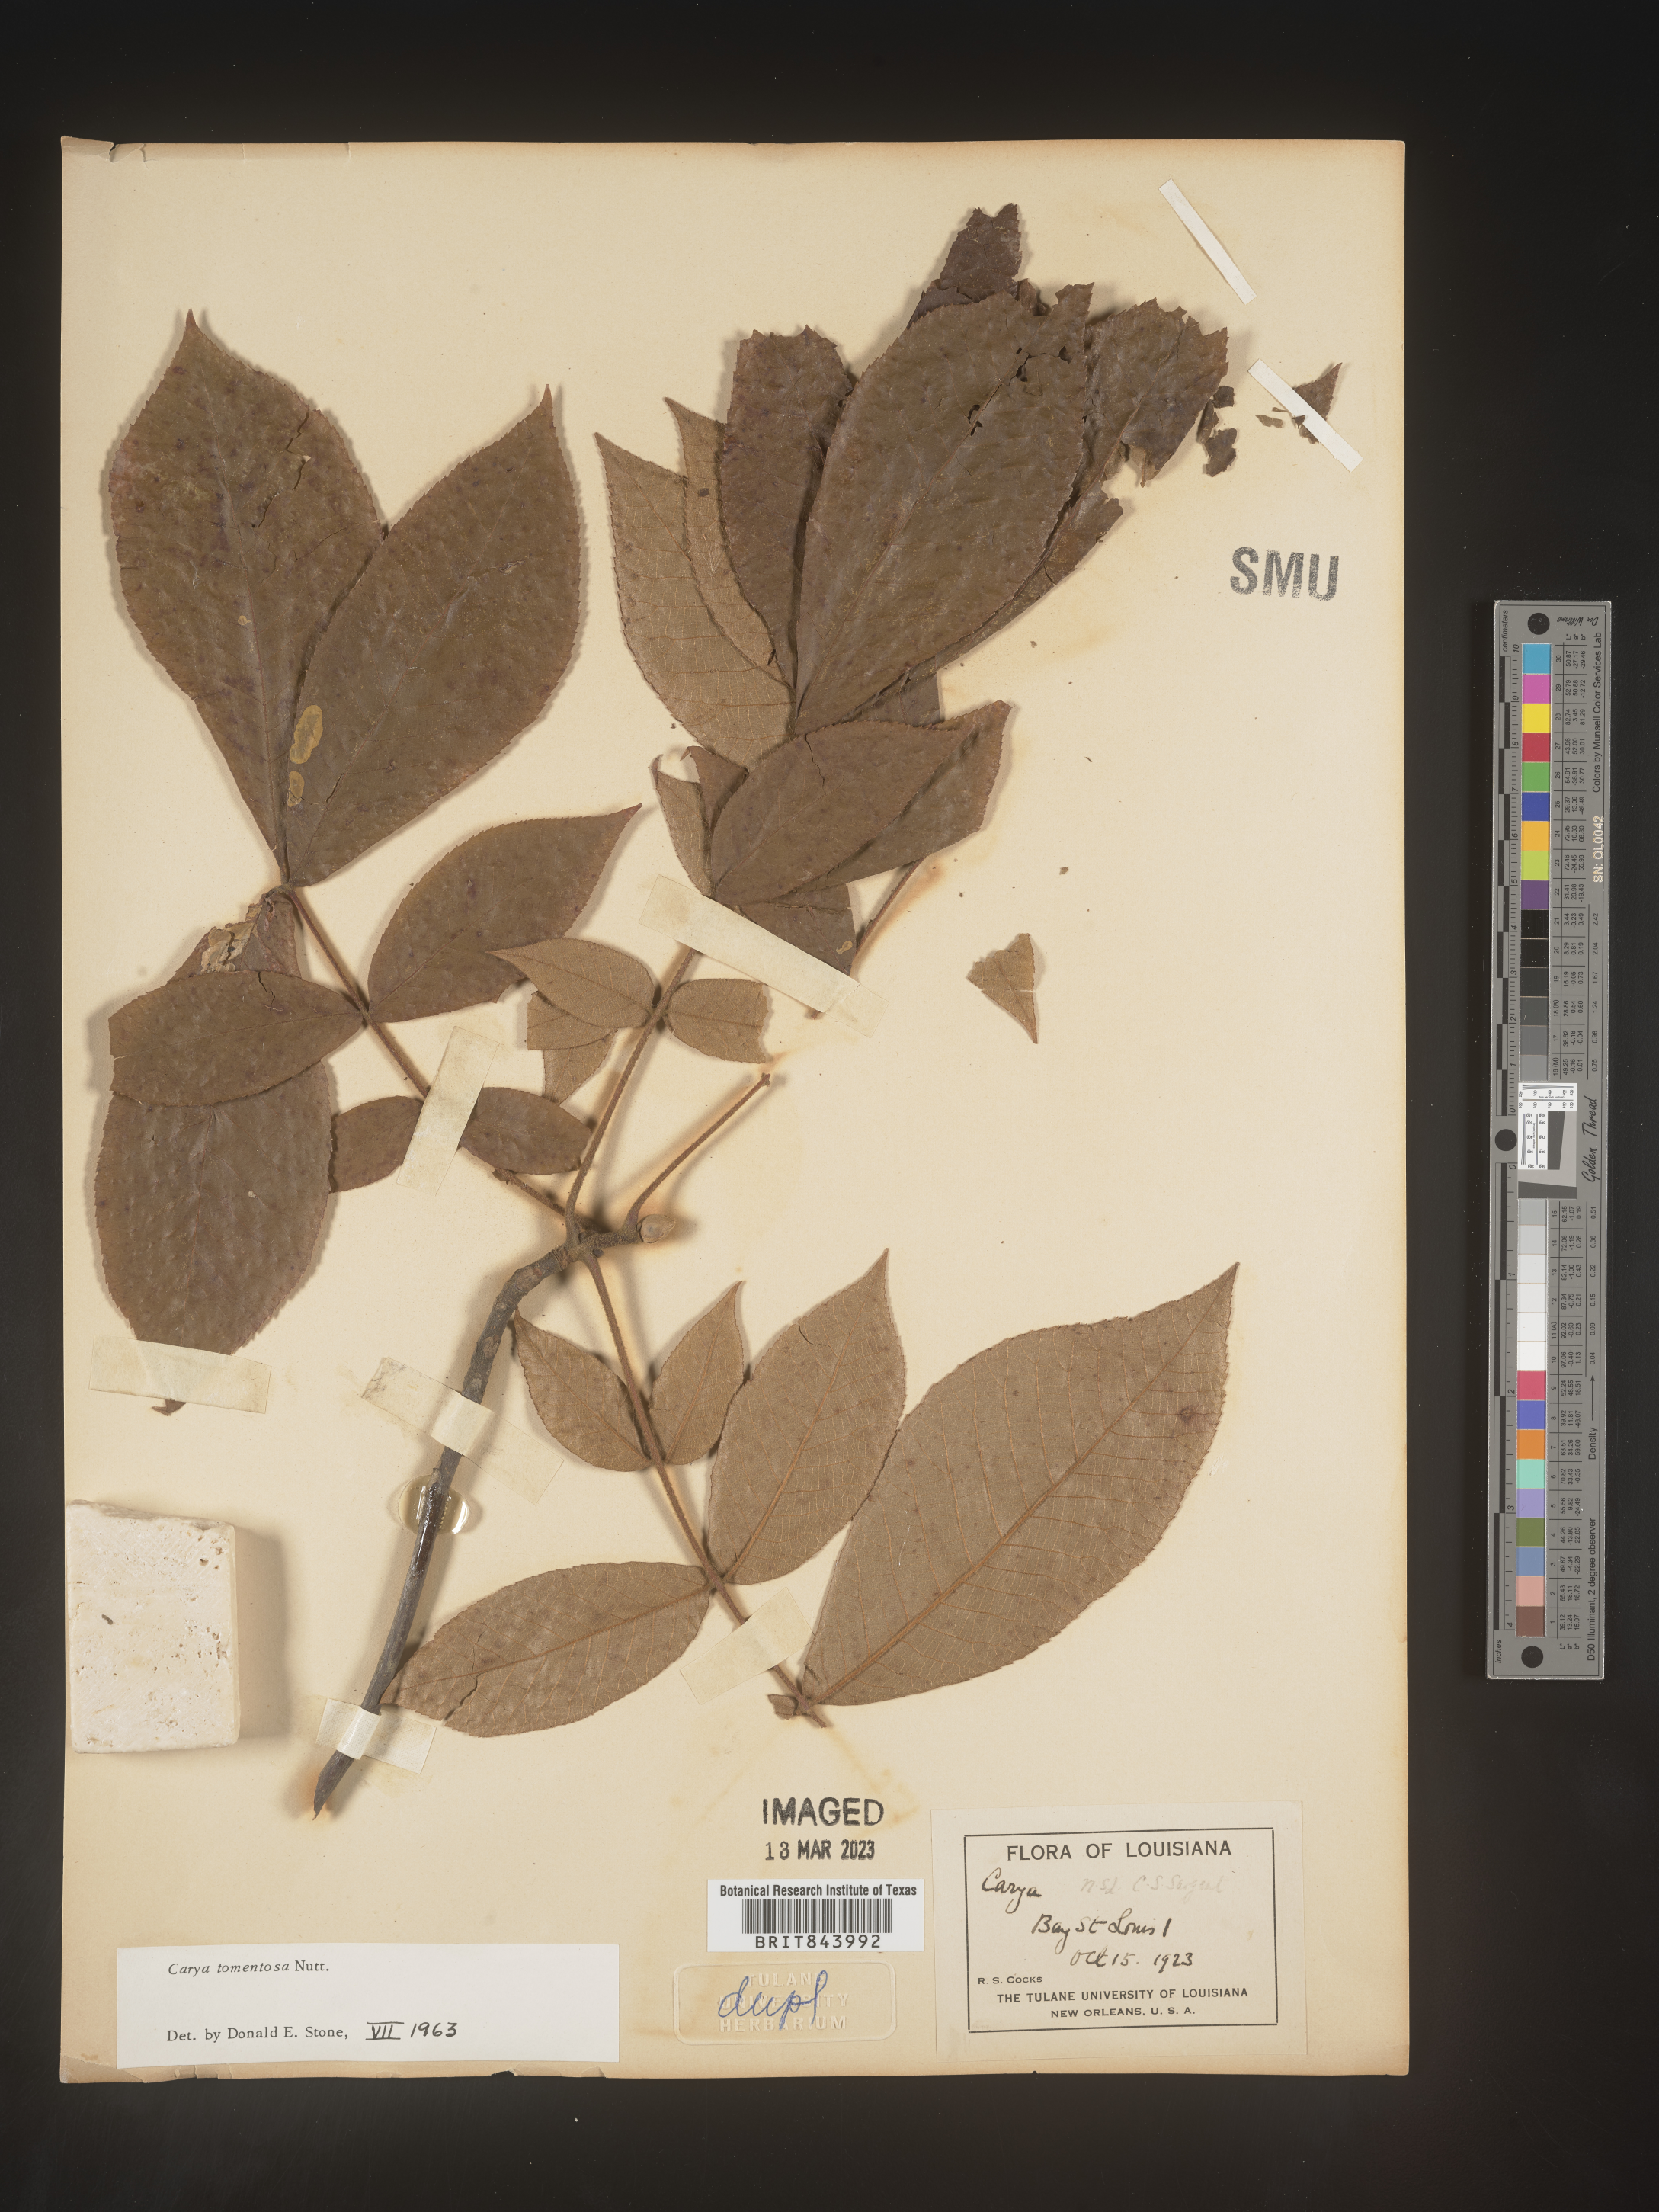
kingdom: Plantae
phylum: Tracheophyta
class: Magnoliopsida
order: Fagales
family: Juglandaceae
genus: Carya
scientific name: Carya alba
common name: Mockernut hickory
